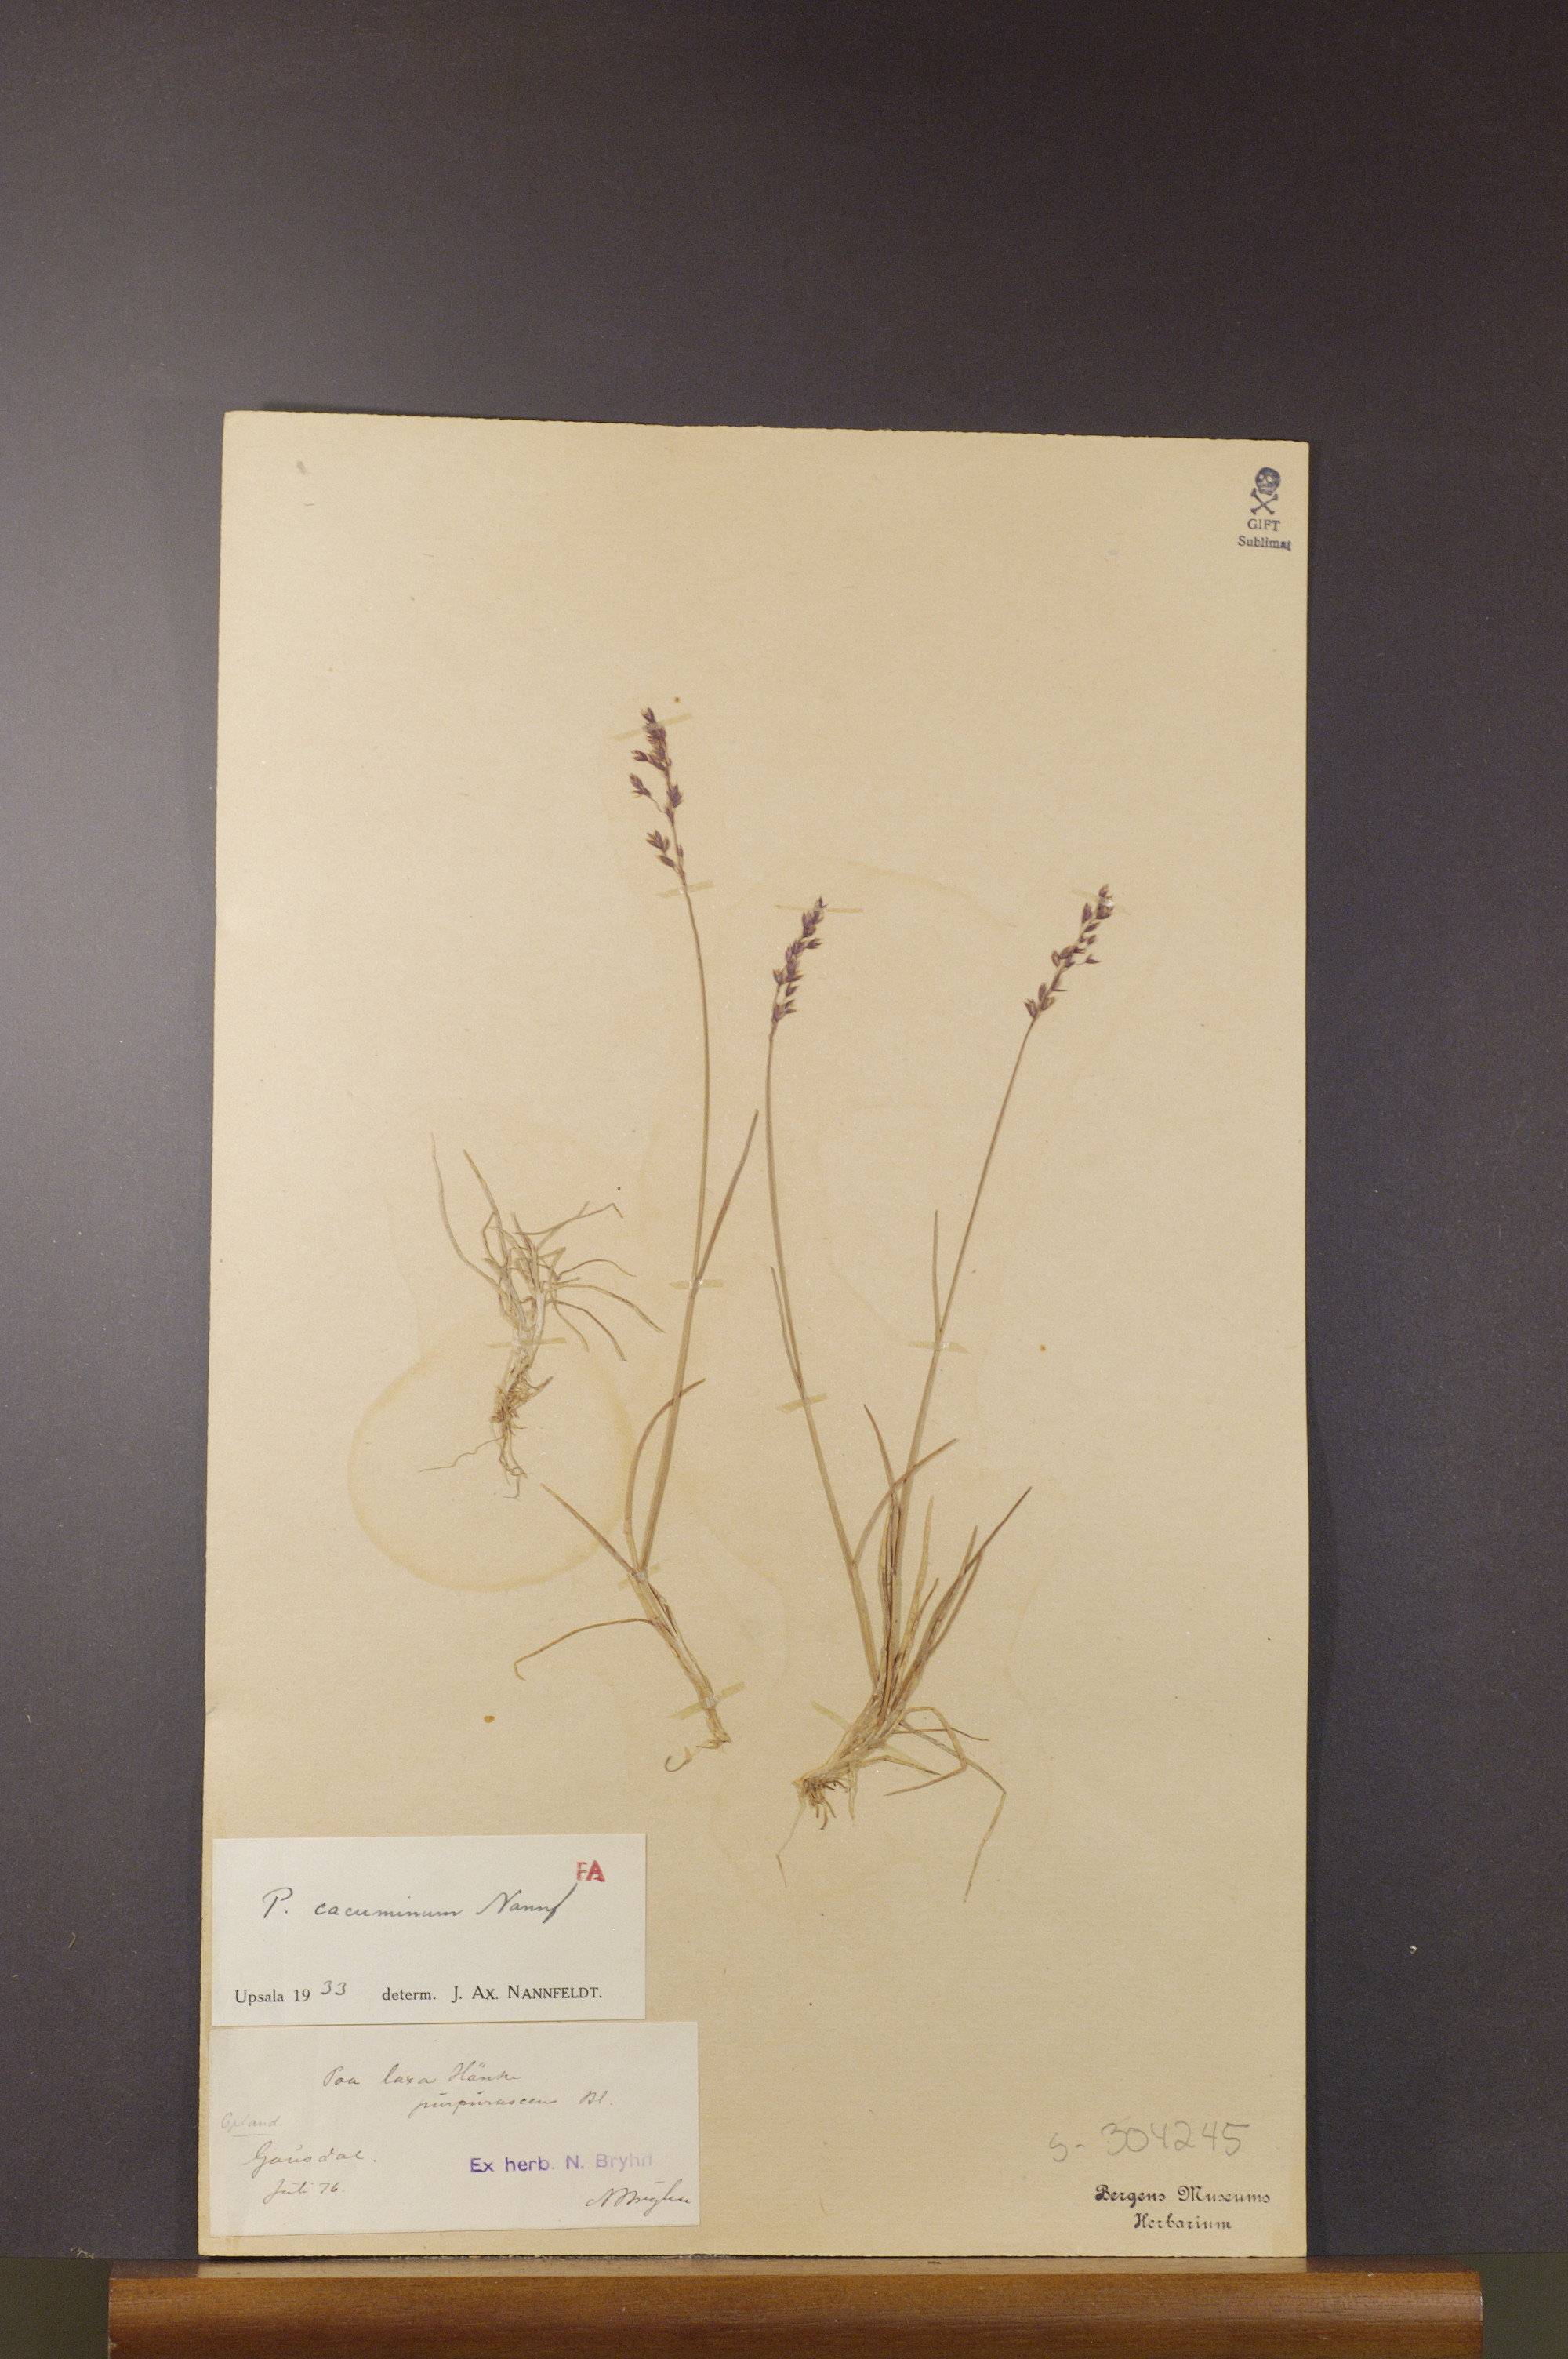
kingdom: Plantae
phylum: Tracheophyta
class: Liliopsida
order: Poales
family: Poaceae
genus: Poa
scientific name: Poa flexuosa
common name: Wavy meadow-grass
